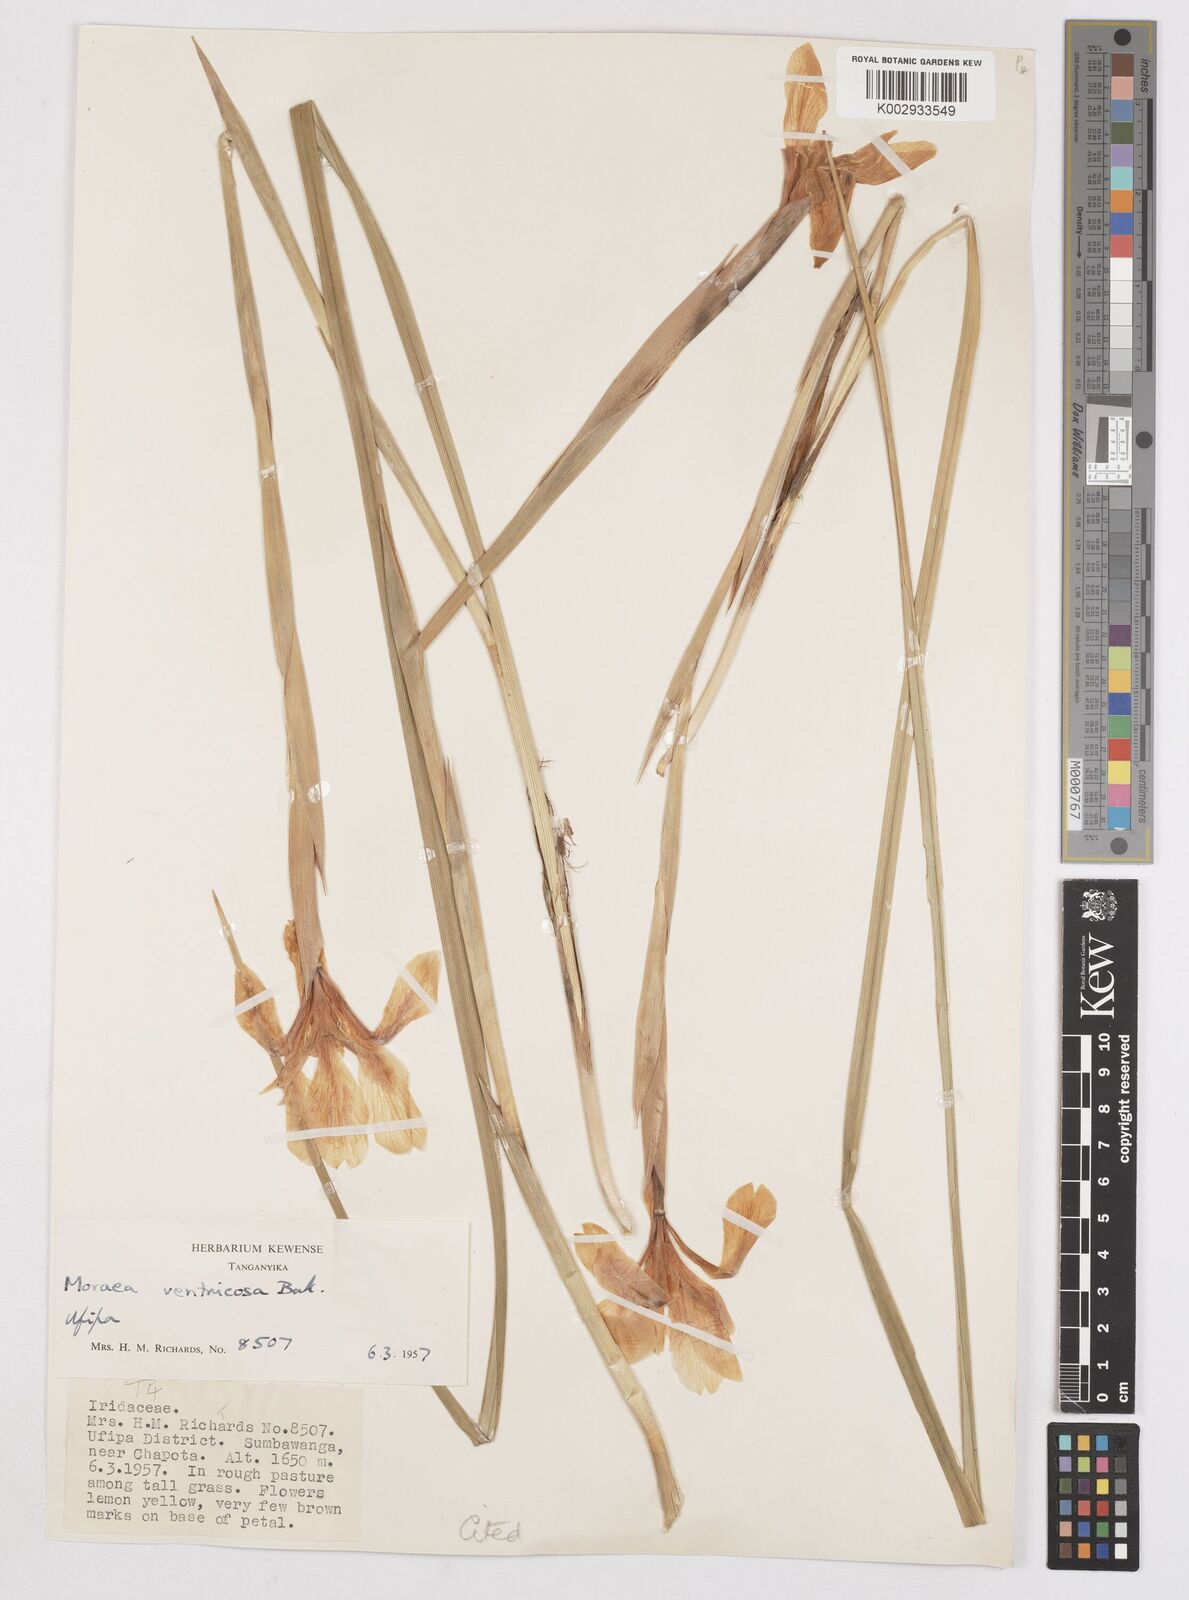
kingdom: Plantae
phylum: Tracheophyta
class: Liliopsida
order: Asparagales
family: Iridaceae
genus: Moraea
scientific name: Moraea ventricosa
